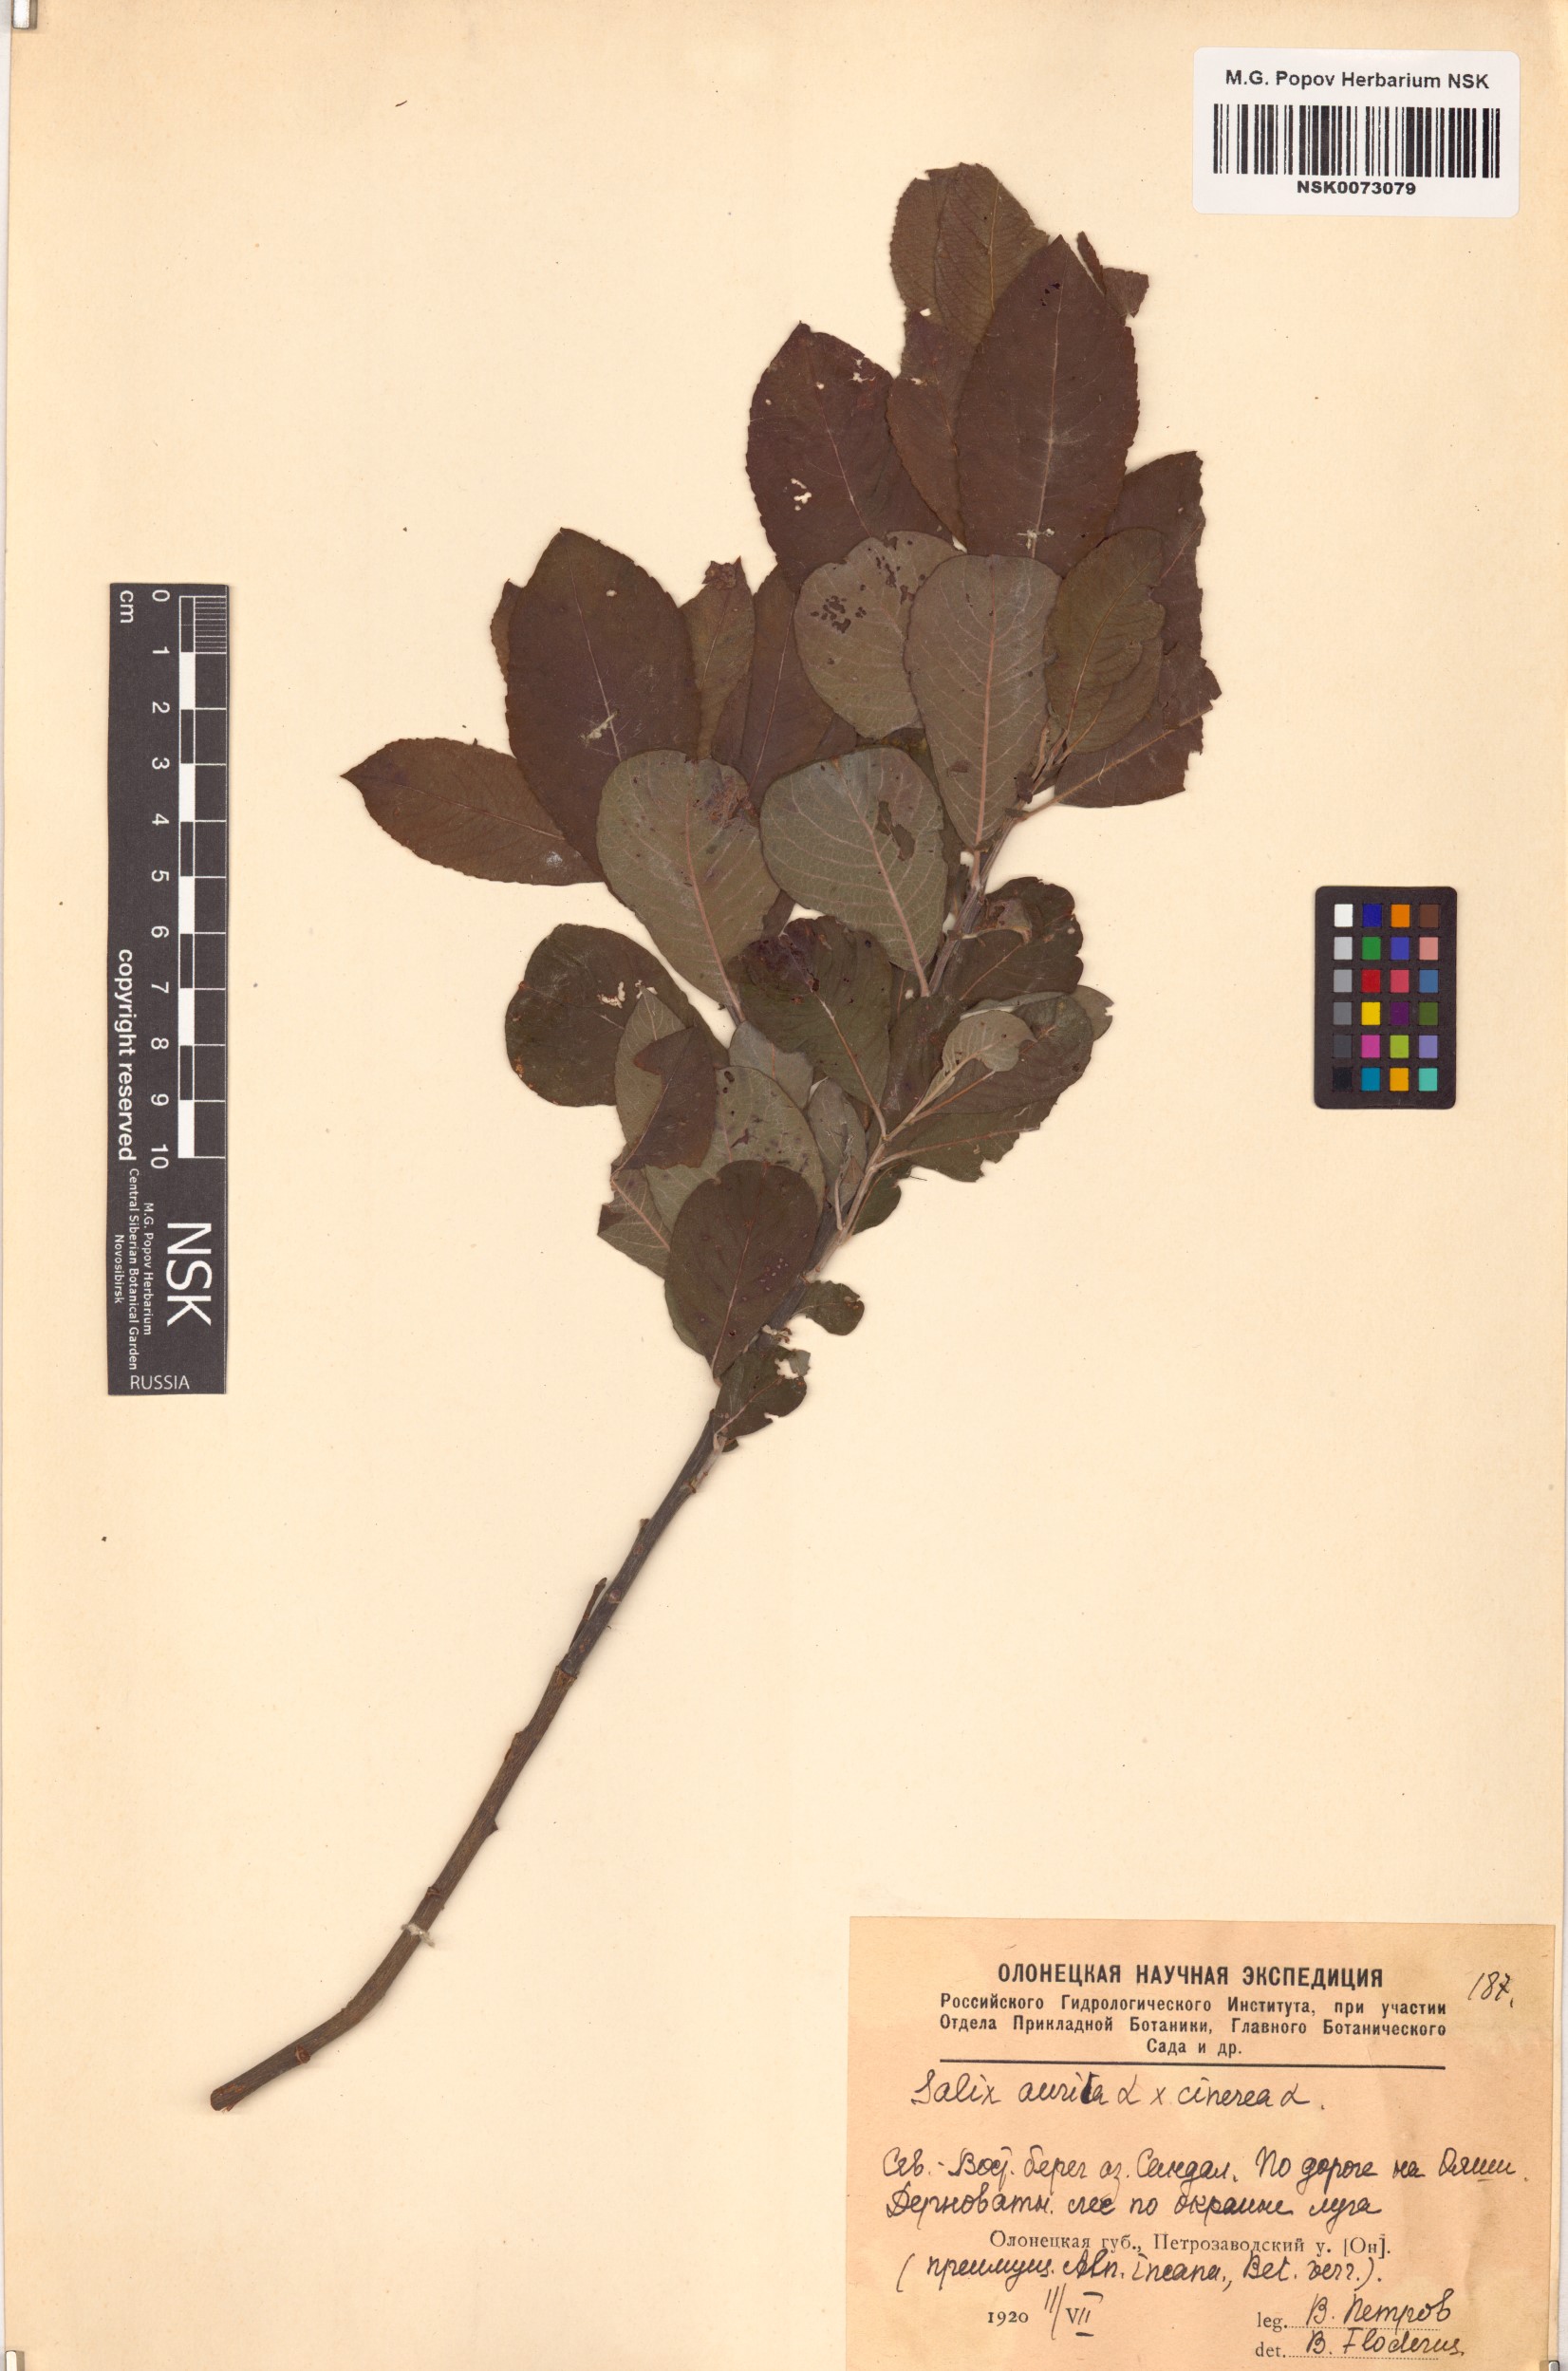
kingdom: Plantae
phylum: Tracheophyta
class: Magnoliopsida
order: Malpighiales
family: Salicaceae
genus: Salix
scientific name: Salix
